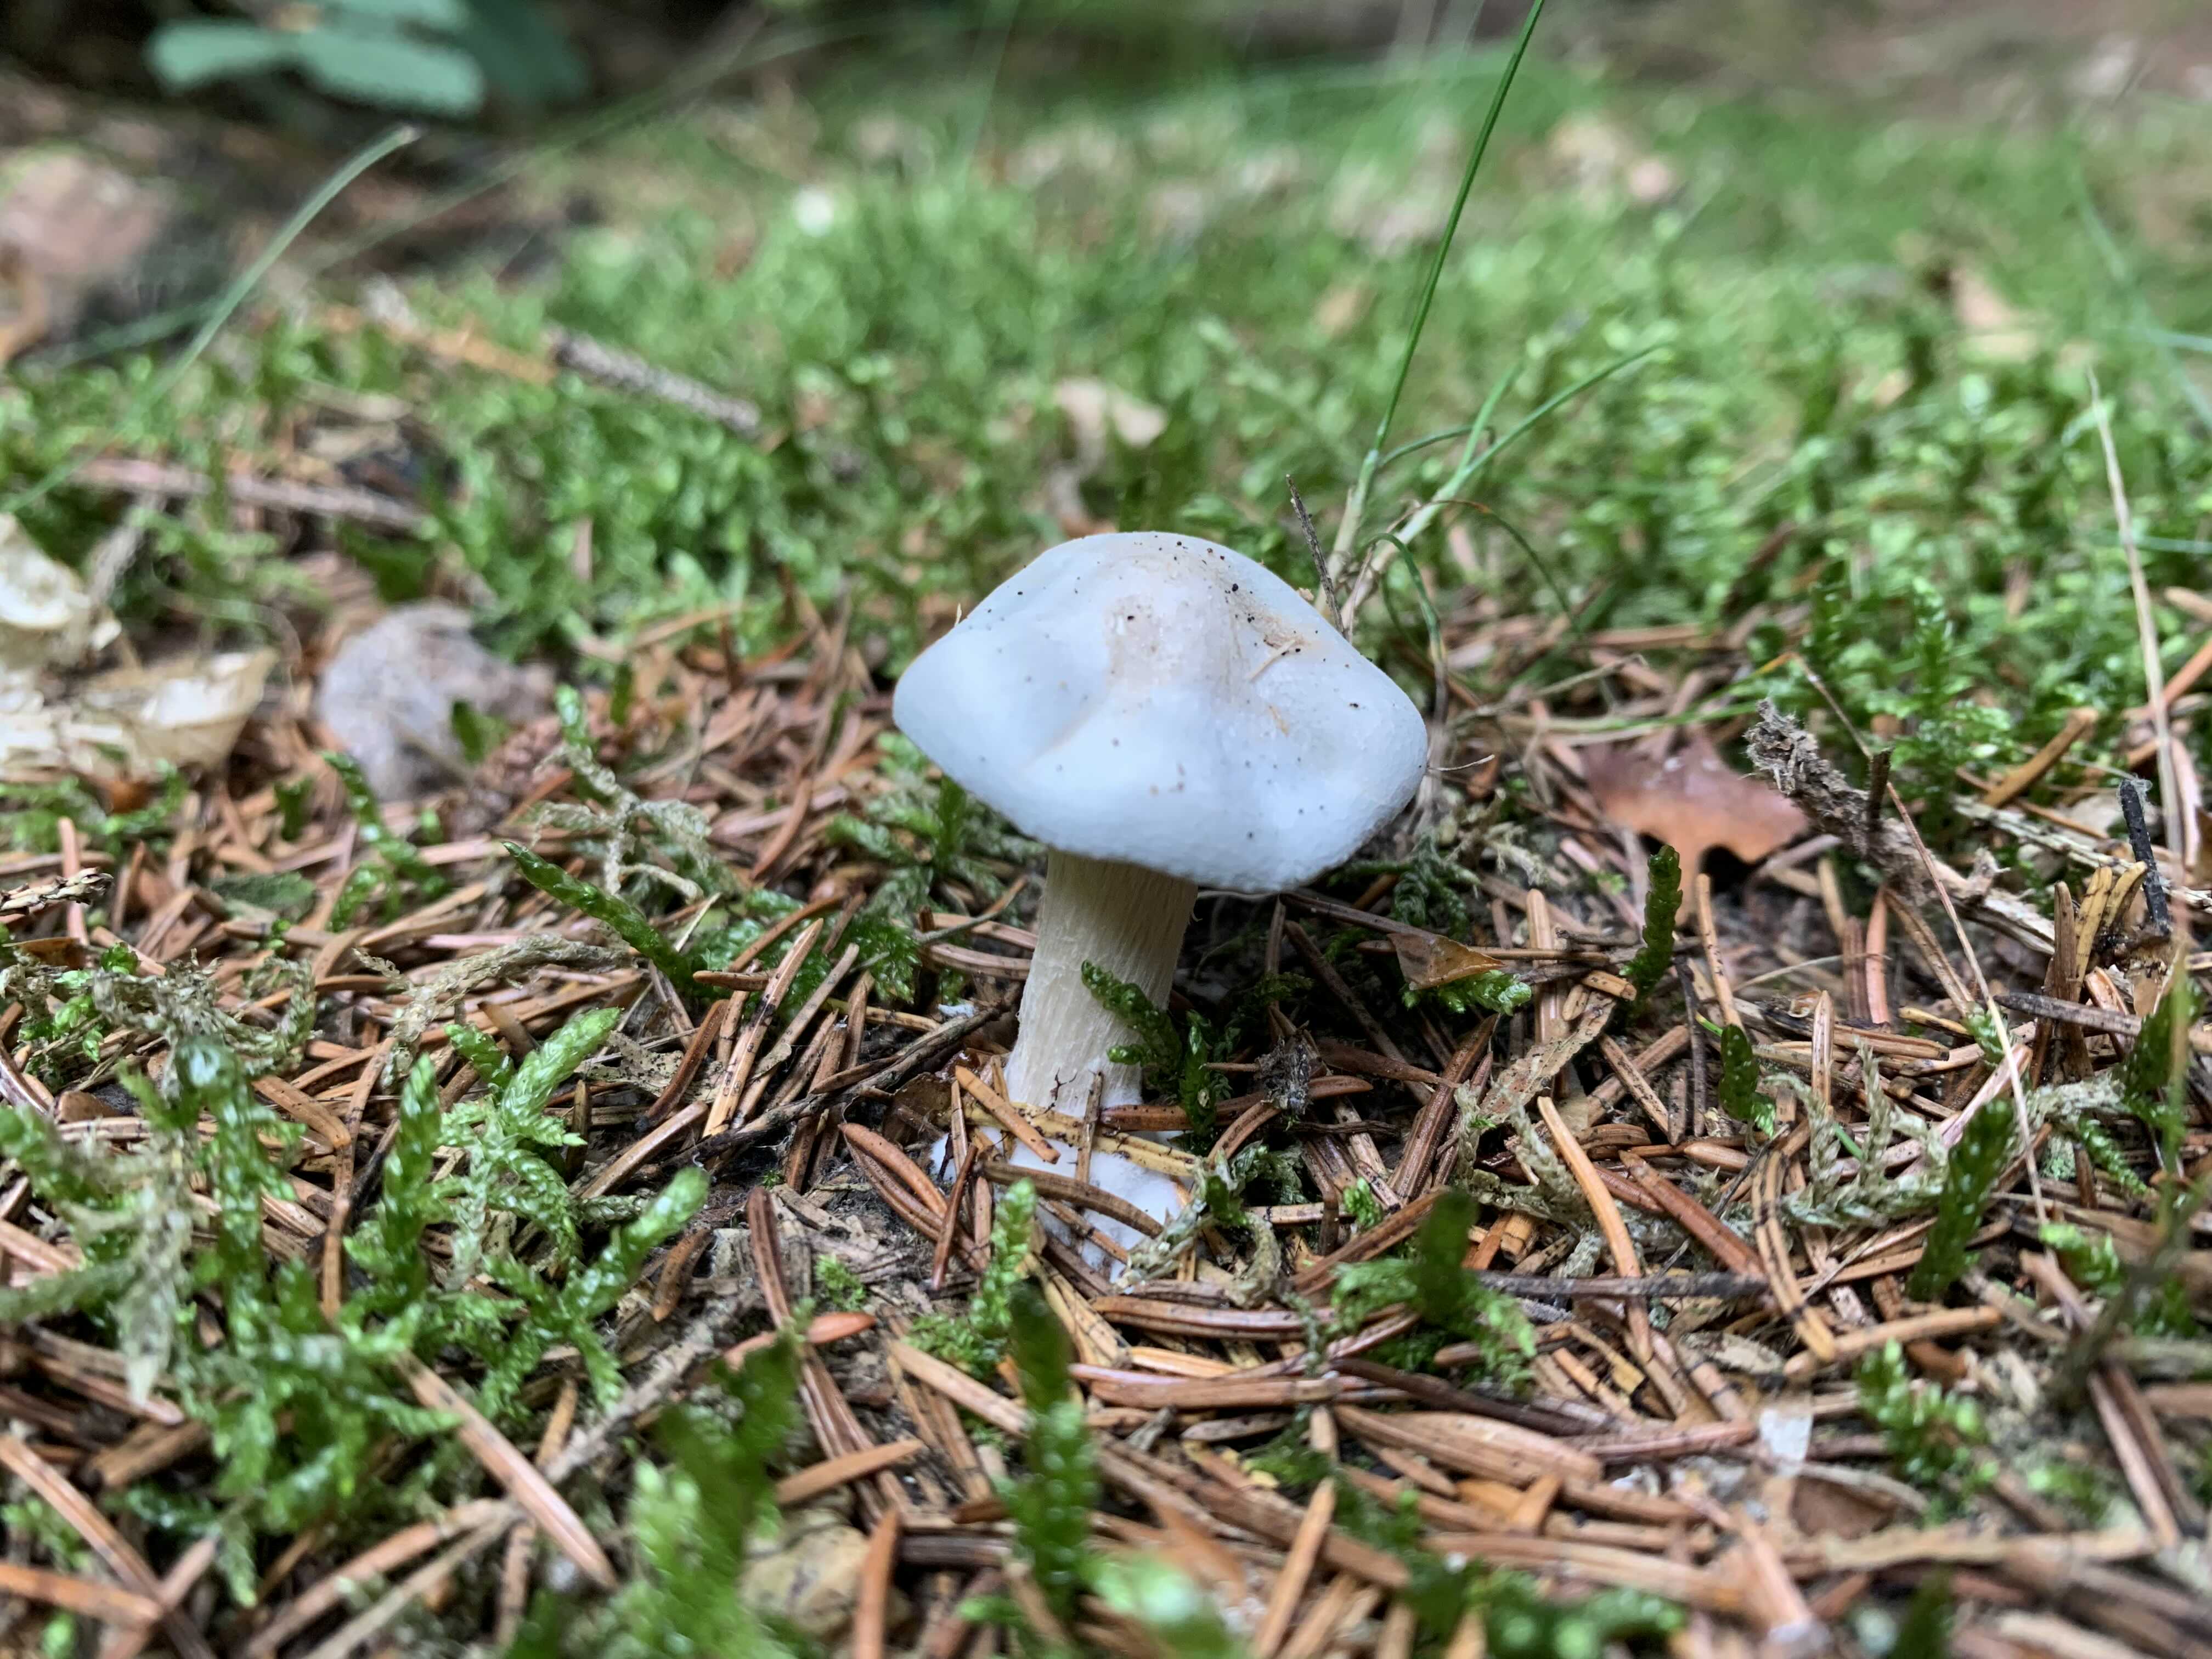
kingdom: Fungi
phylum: Basidiomycota
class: Agaricomycetes
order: Agaricales
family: Tricholomataceae
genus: Clitocybe
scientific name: Clitocybe odora
